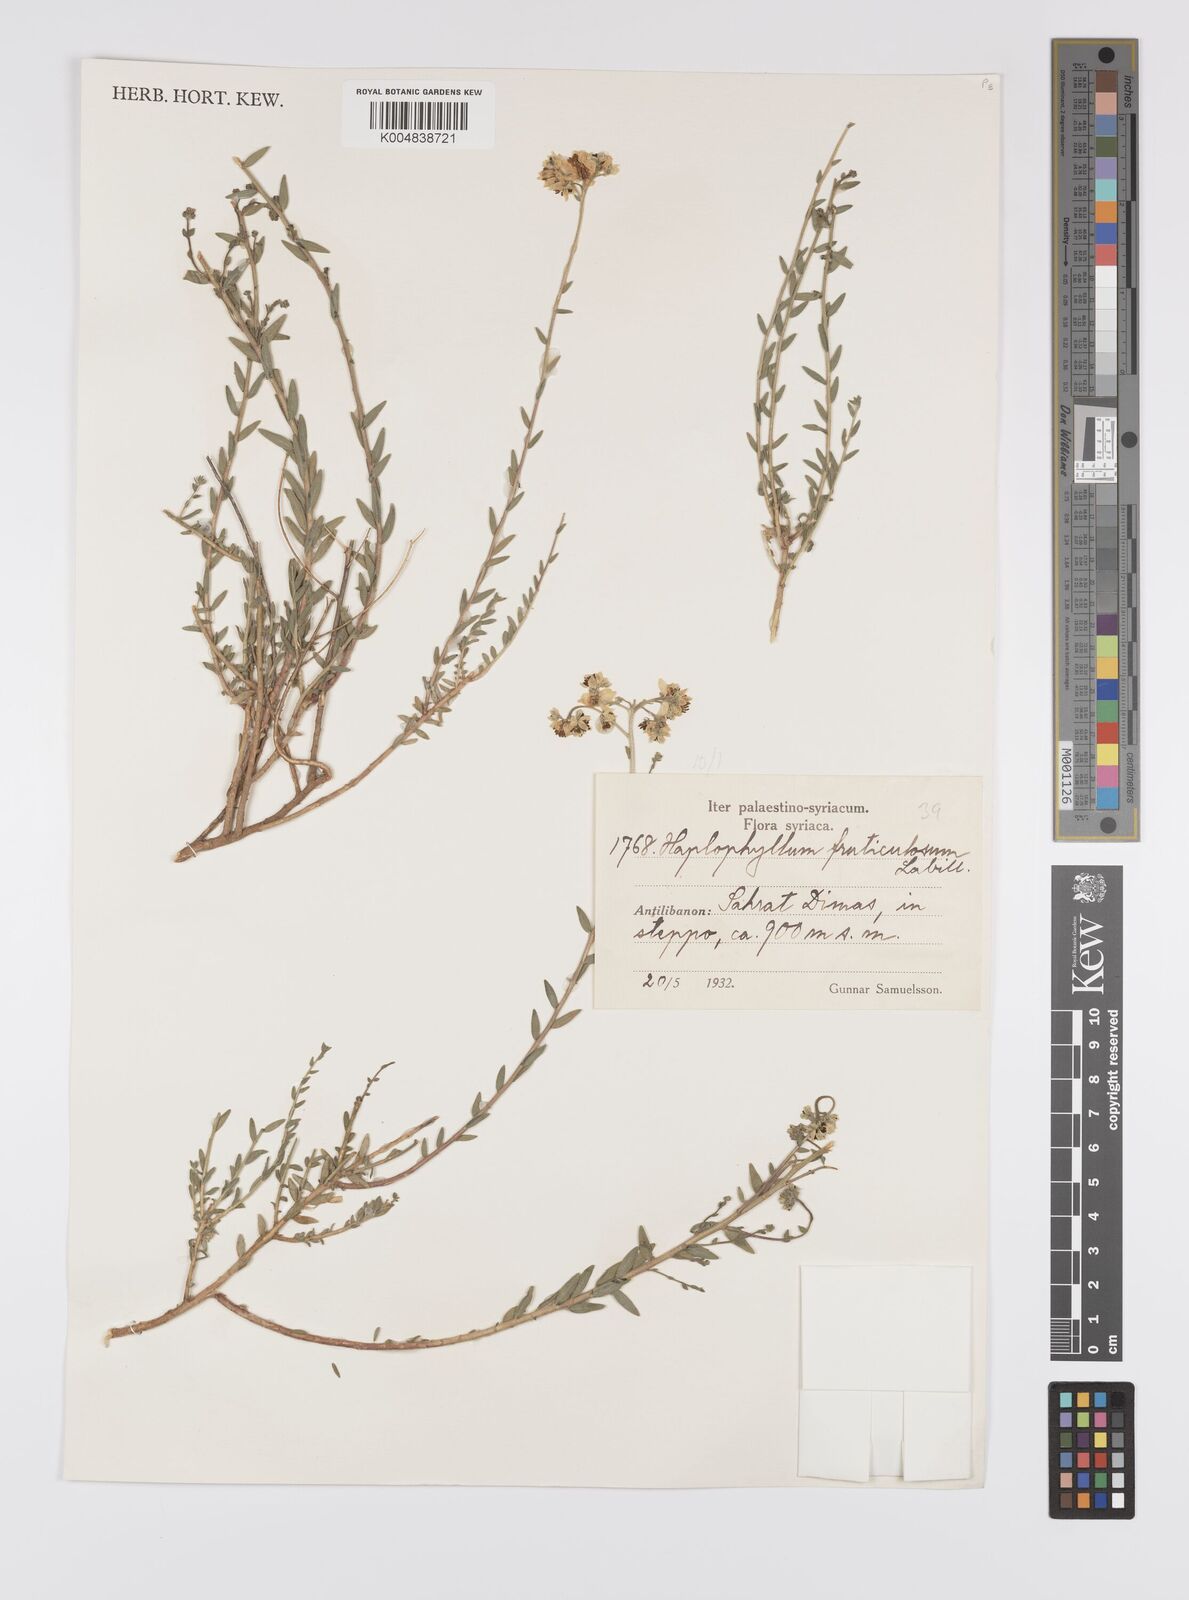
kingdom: Plantae
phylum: Tracheophyta
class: Magnoliopsida
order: Sapindales
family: Rutaceae
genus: Haplophyllum
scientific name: Haplophyllum fruticulosum
